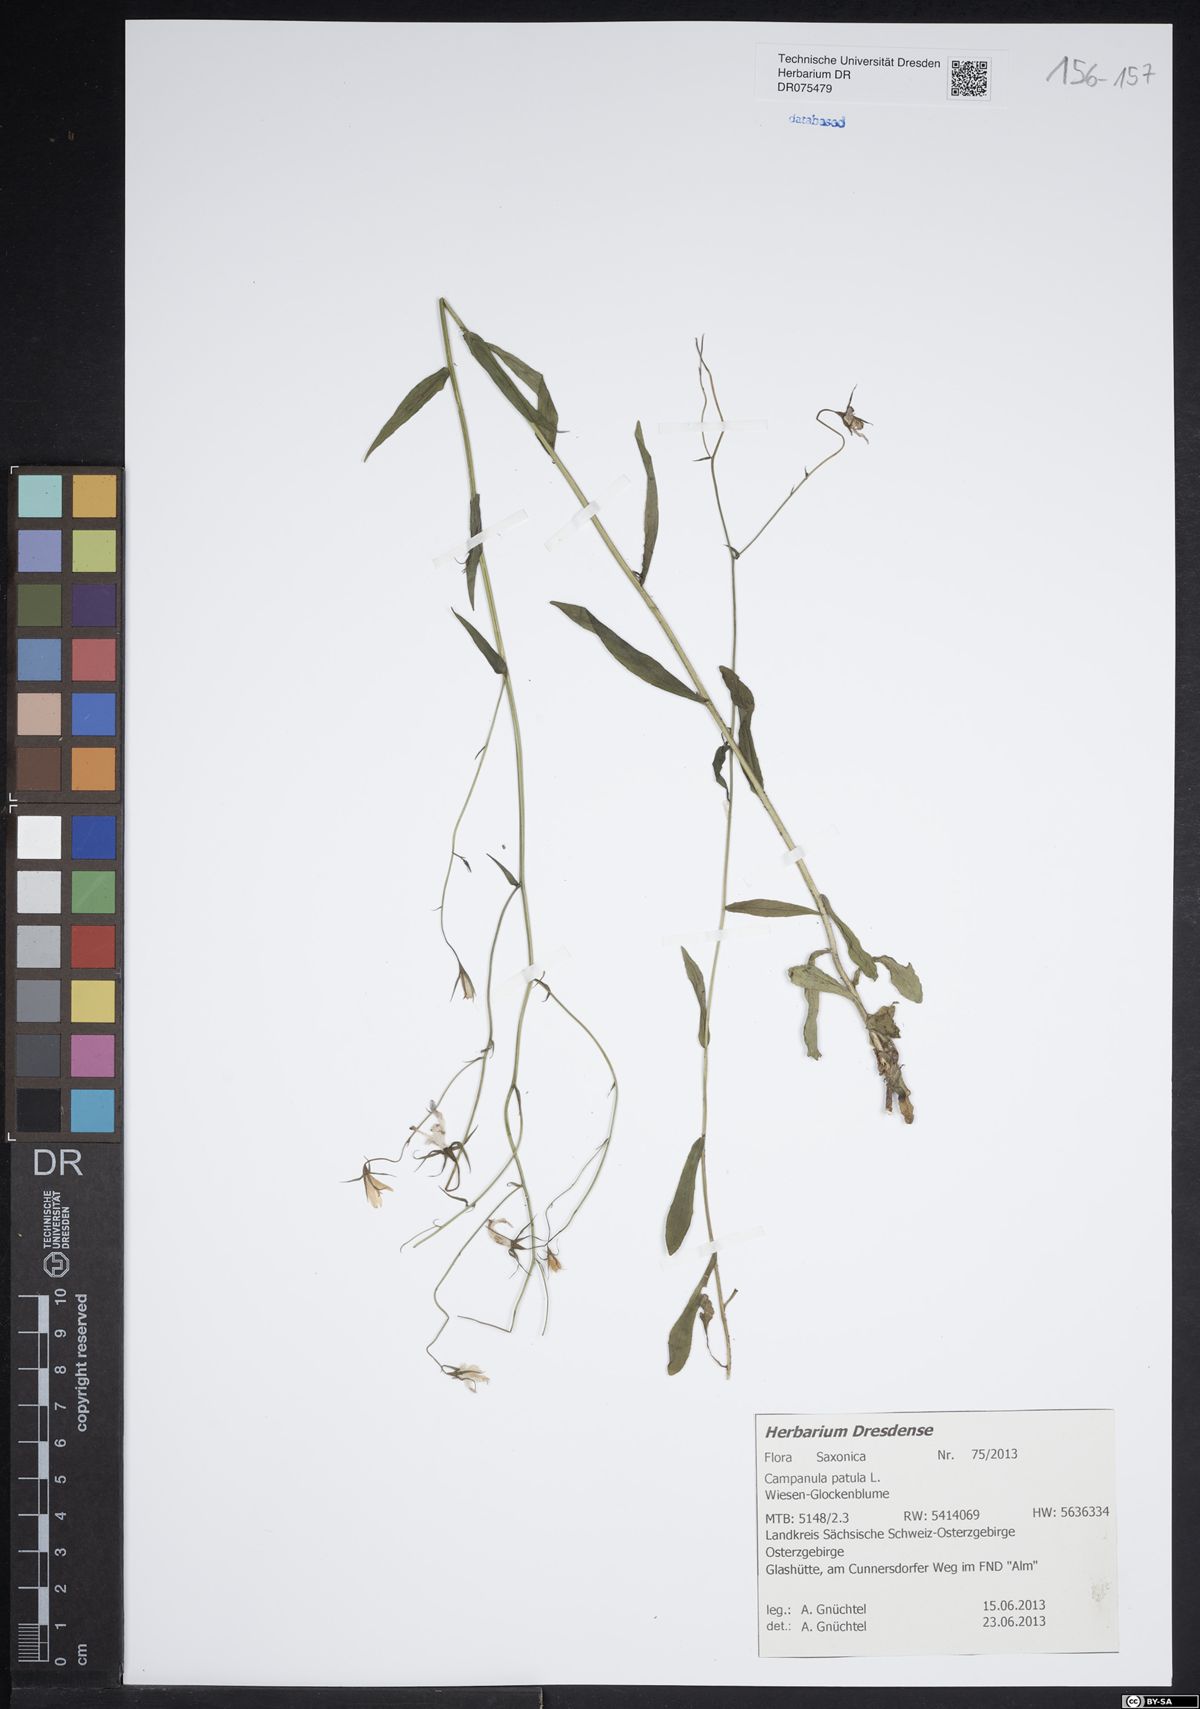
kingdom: Plantae
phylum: Tracheophyta
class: Magnoliopsida
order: Asterales
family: Campanulaceae
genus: Campanula
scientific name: Campanula patula
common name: Spreading bellflower
